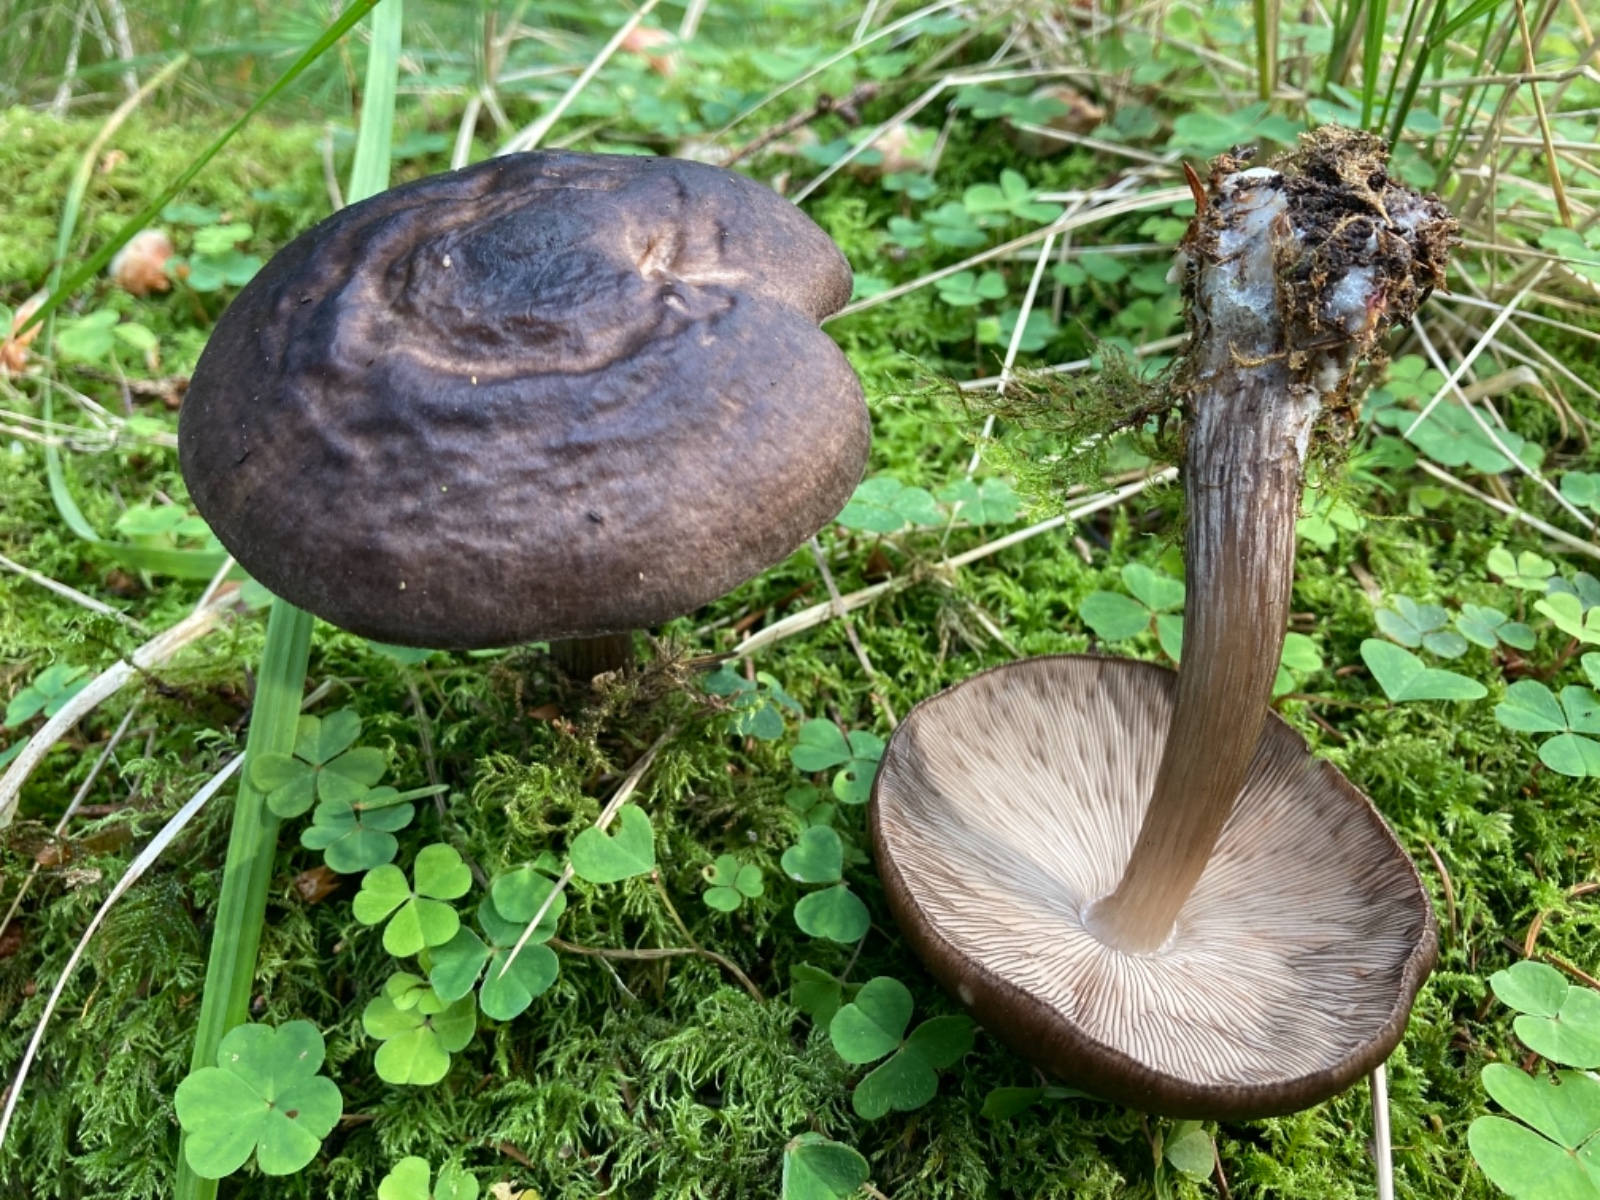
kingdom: Fungi
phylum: Basidiomycota
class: Agaricomycetes
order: Agaricales
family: Pluteaceae
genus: Pluteus
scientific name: Pluteus atromarginatus
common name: sortrandet skærmhat
